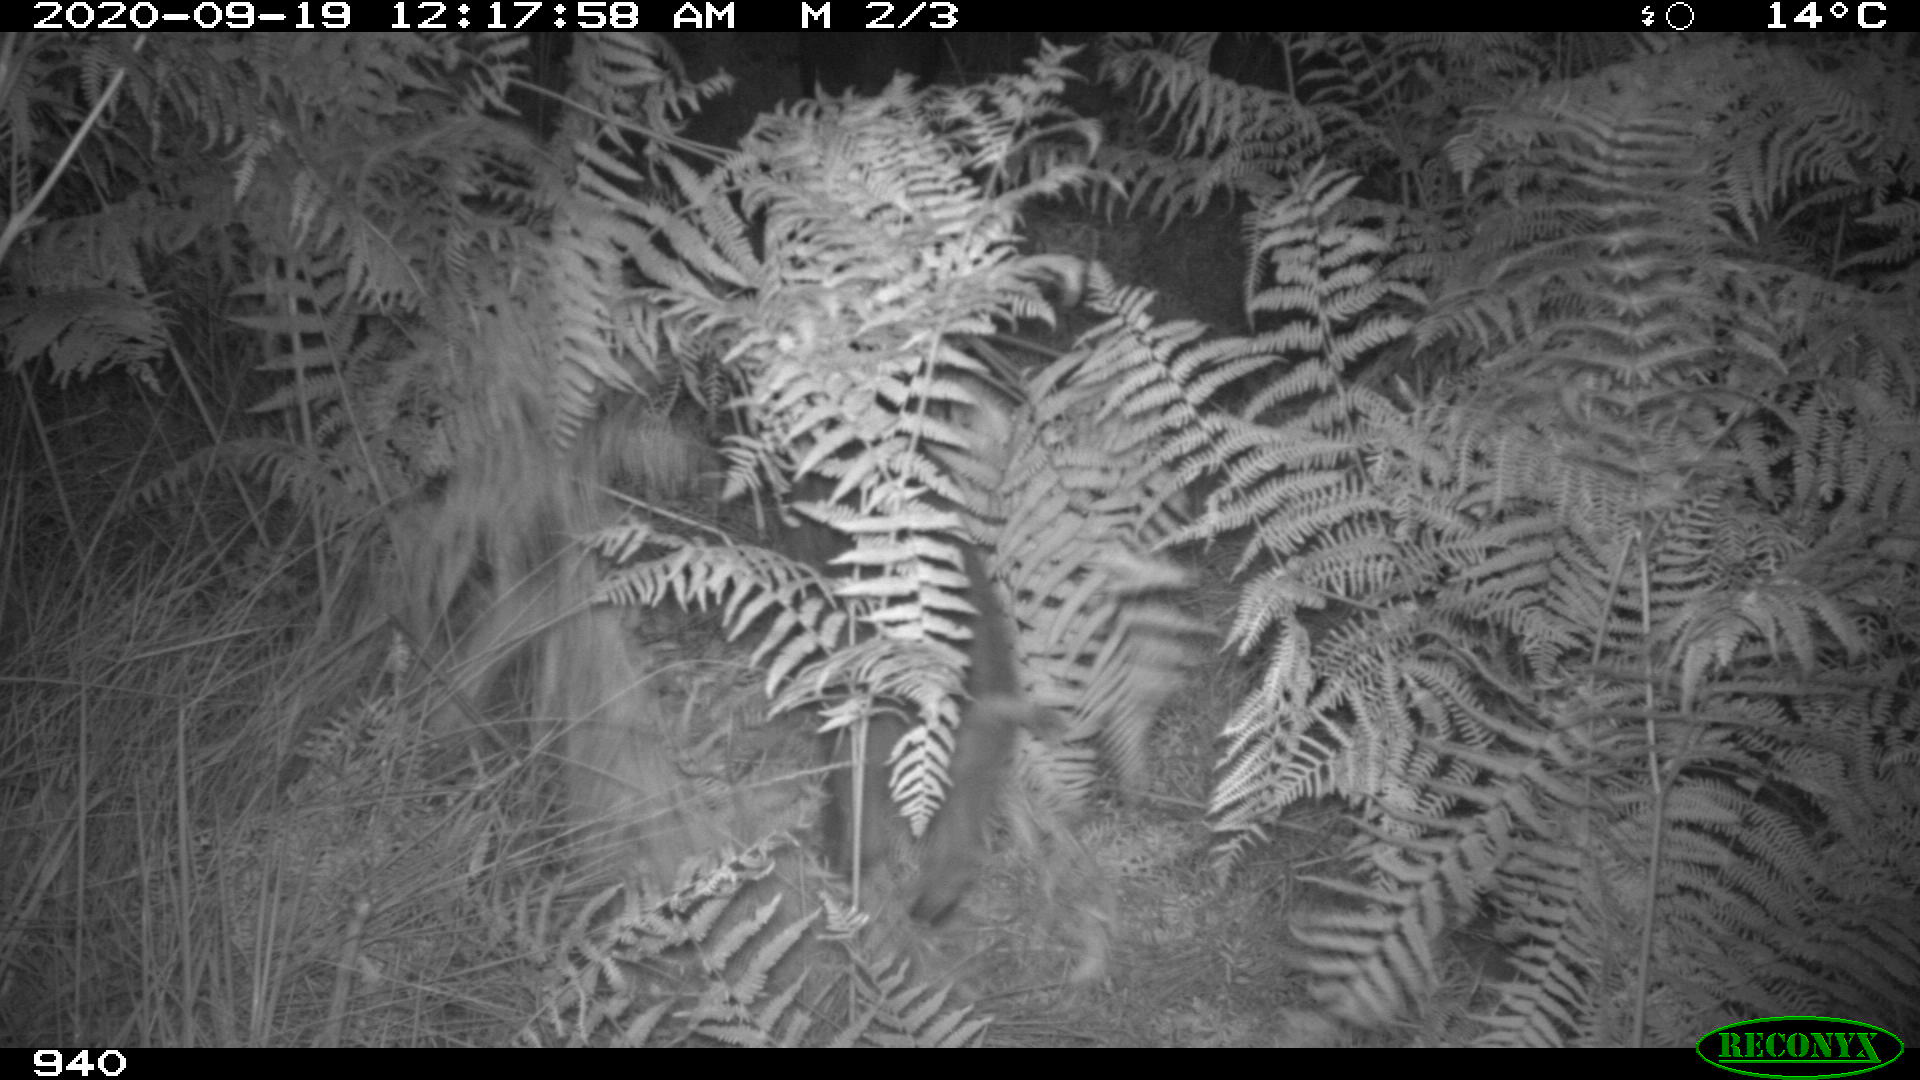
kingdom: Animalia
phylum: Chordata
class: Mammalia
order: Artiodactyla
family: Suidae
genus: Sus
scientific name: Sus scrofa
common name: Wild boar
